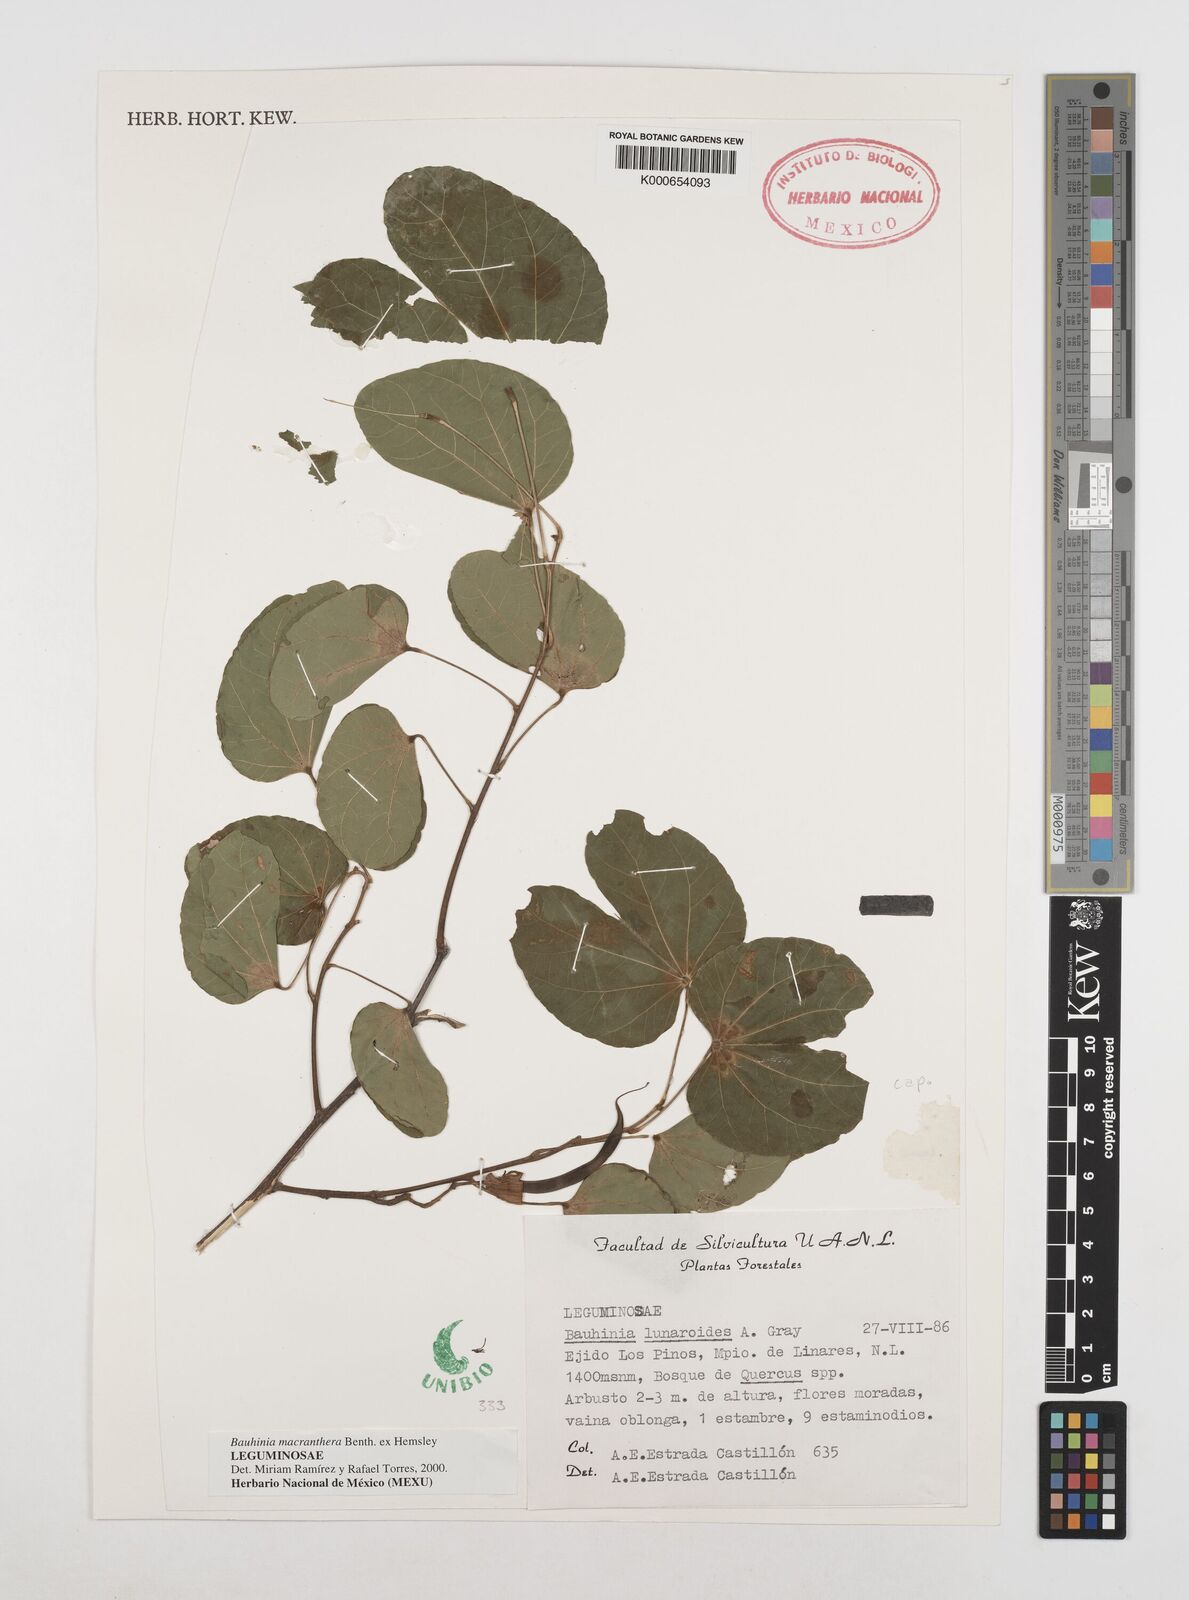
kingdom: Plantae
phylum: Tracheophyta
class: Magnoliopsida
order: Fabales
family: Fabaceae
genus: Bauhinia
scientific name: Bauhinia macranthera
